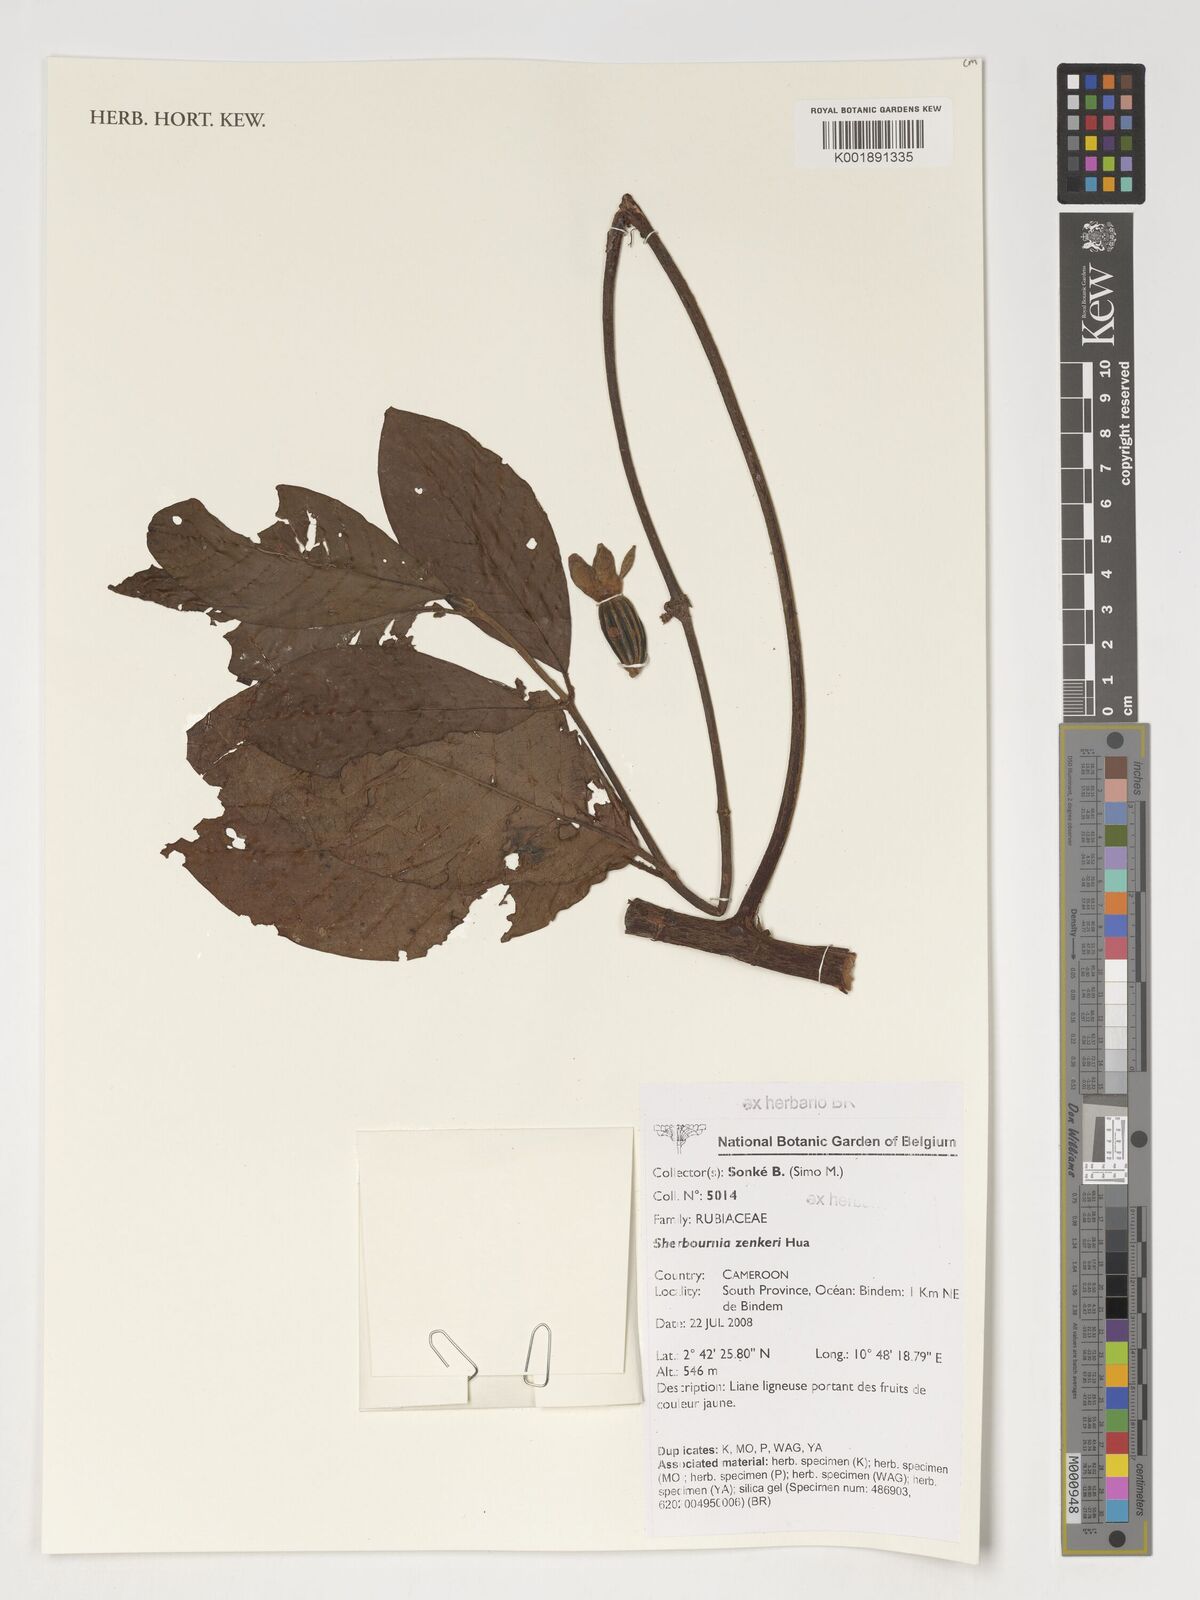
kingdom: Plantae
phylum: Tracheophyta
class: Magnoliopsida
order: Gentianales
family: Rubiaceae
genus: Sherbournia
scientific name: Sherbournia zenkeri
